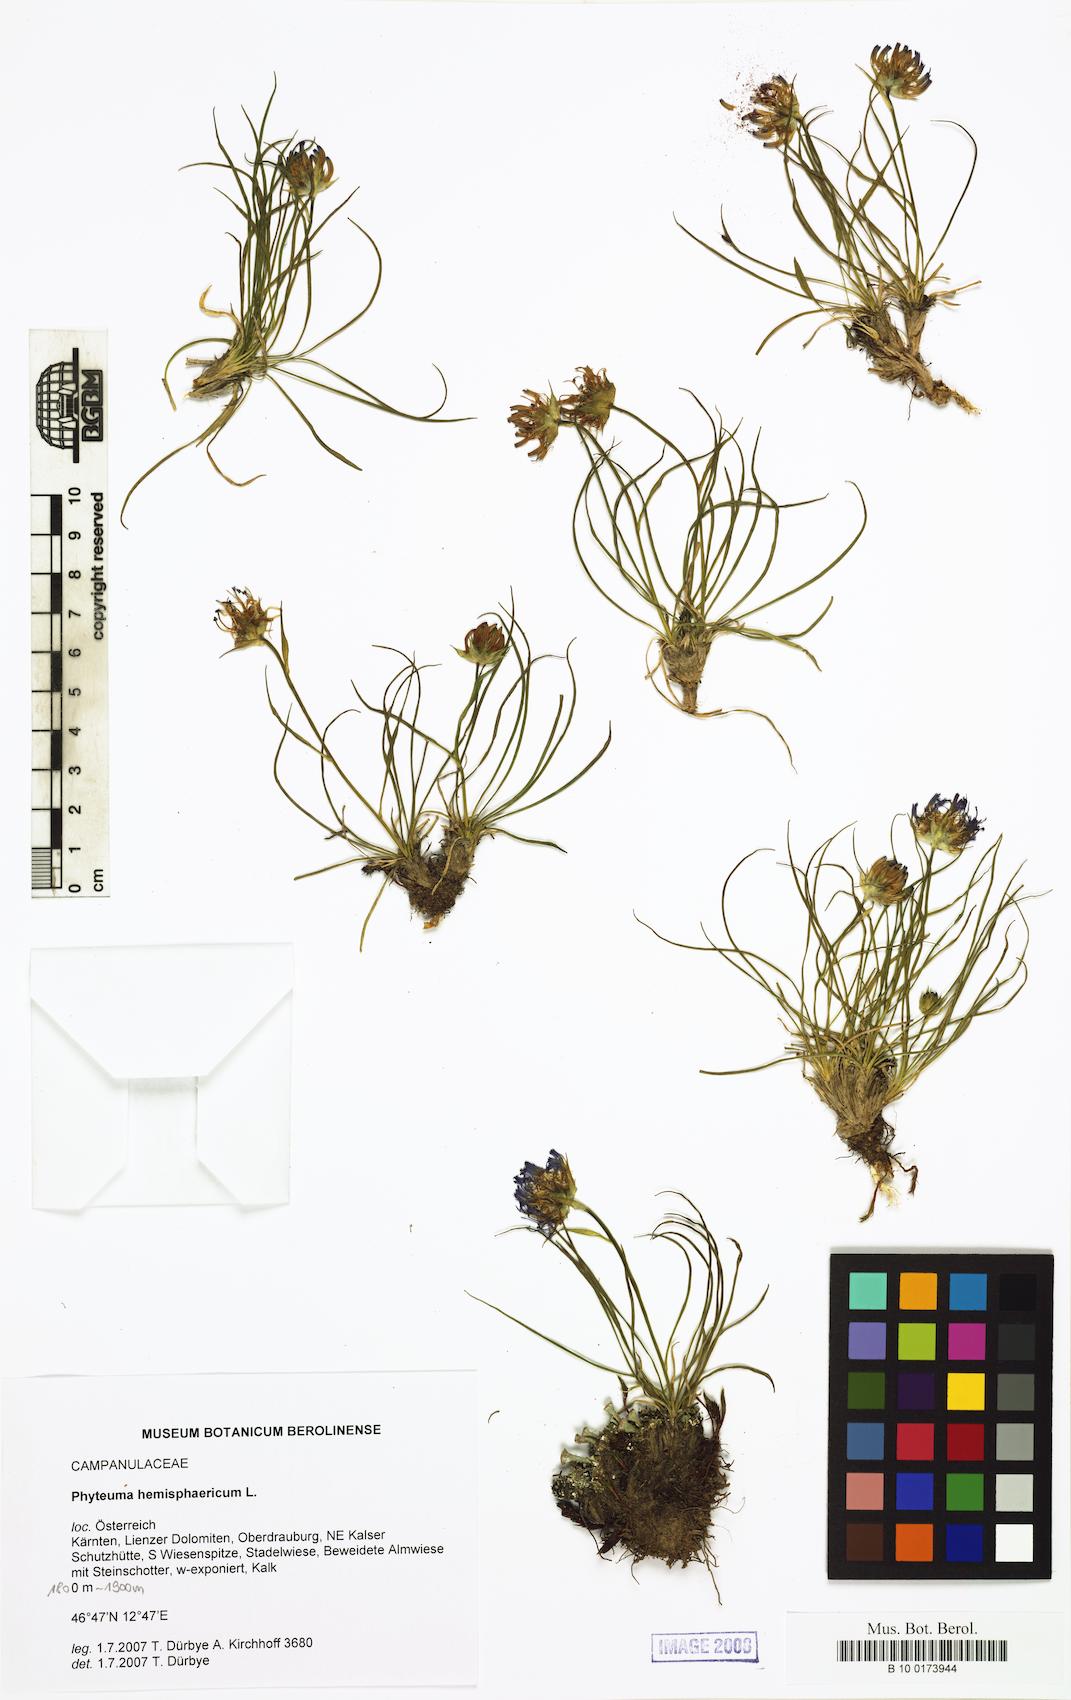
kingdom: Plantae
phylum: Tracheophyta
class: Magnoliopsida
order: Asterales
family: Campanulaceae
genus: Phyteuma
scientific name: Phyteuma hemisphaericum
